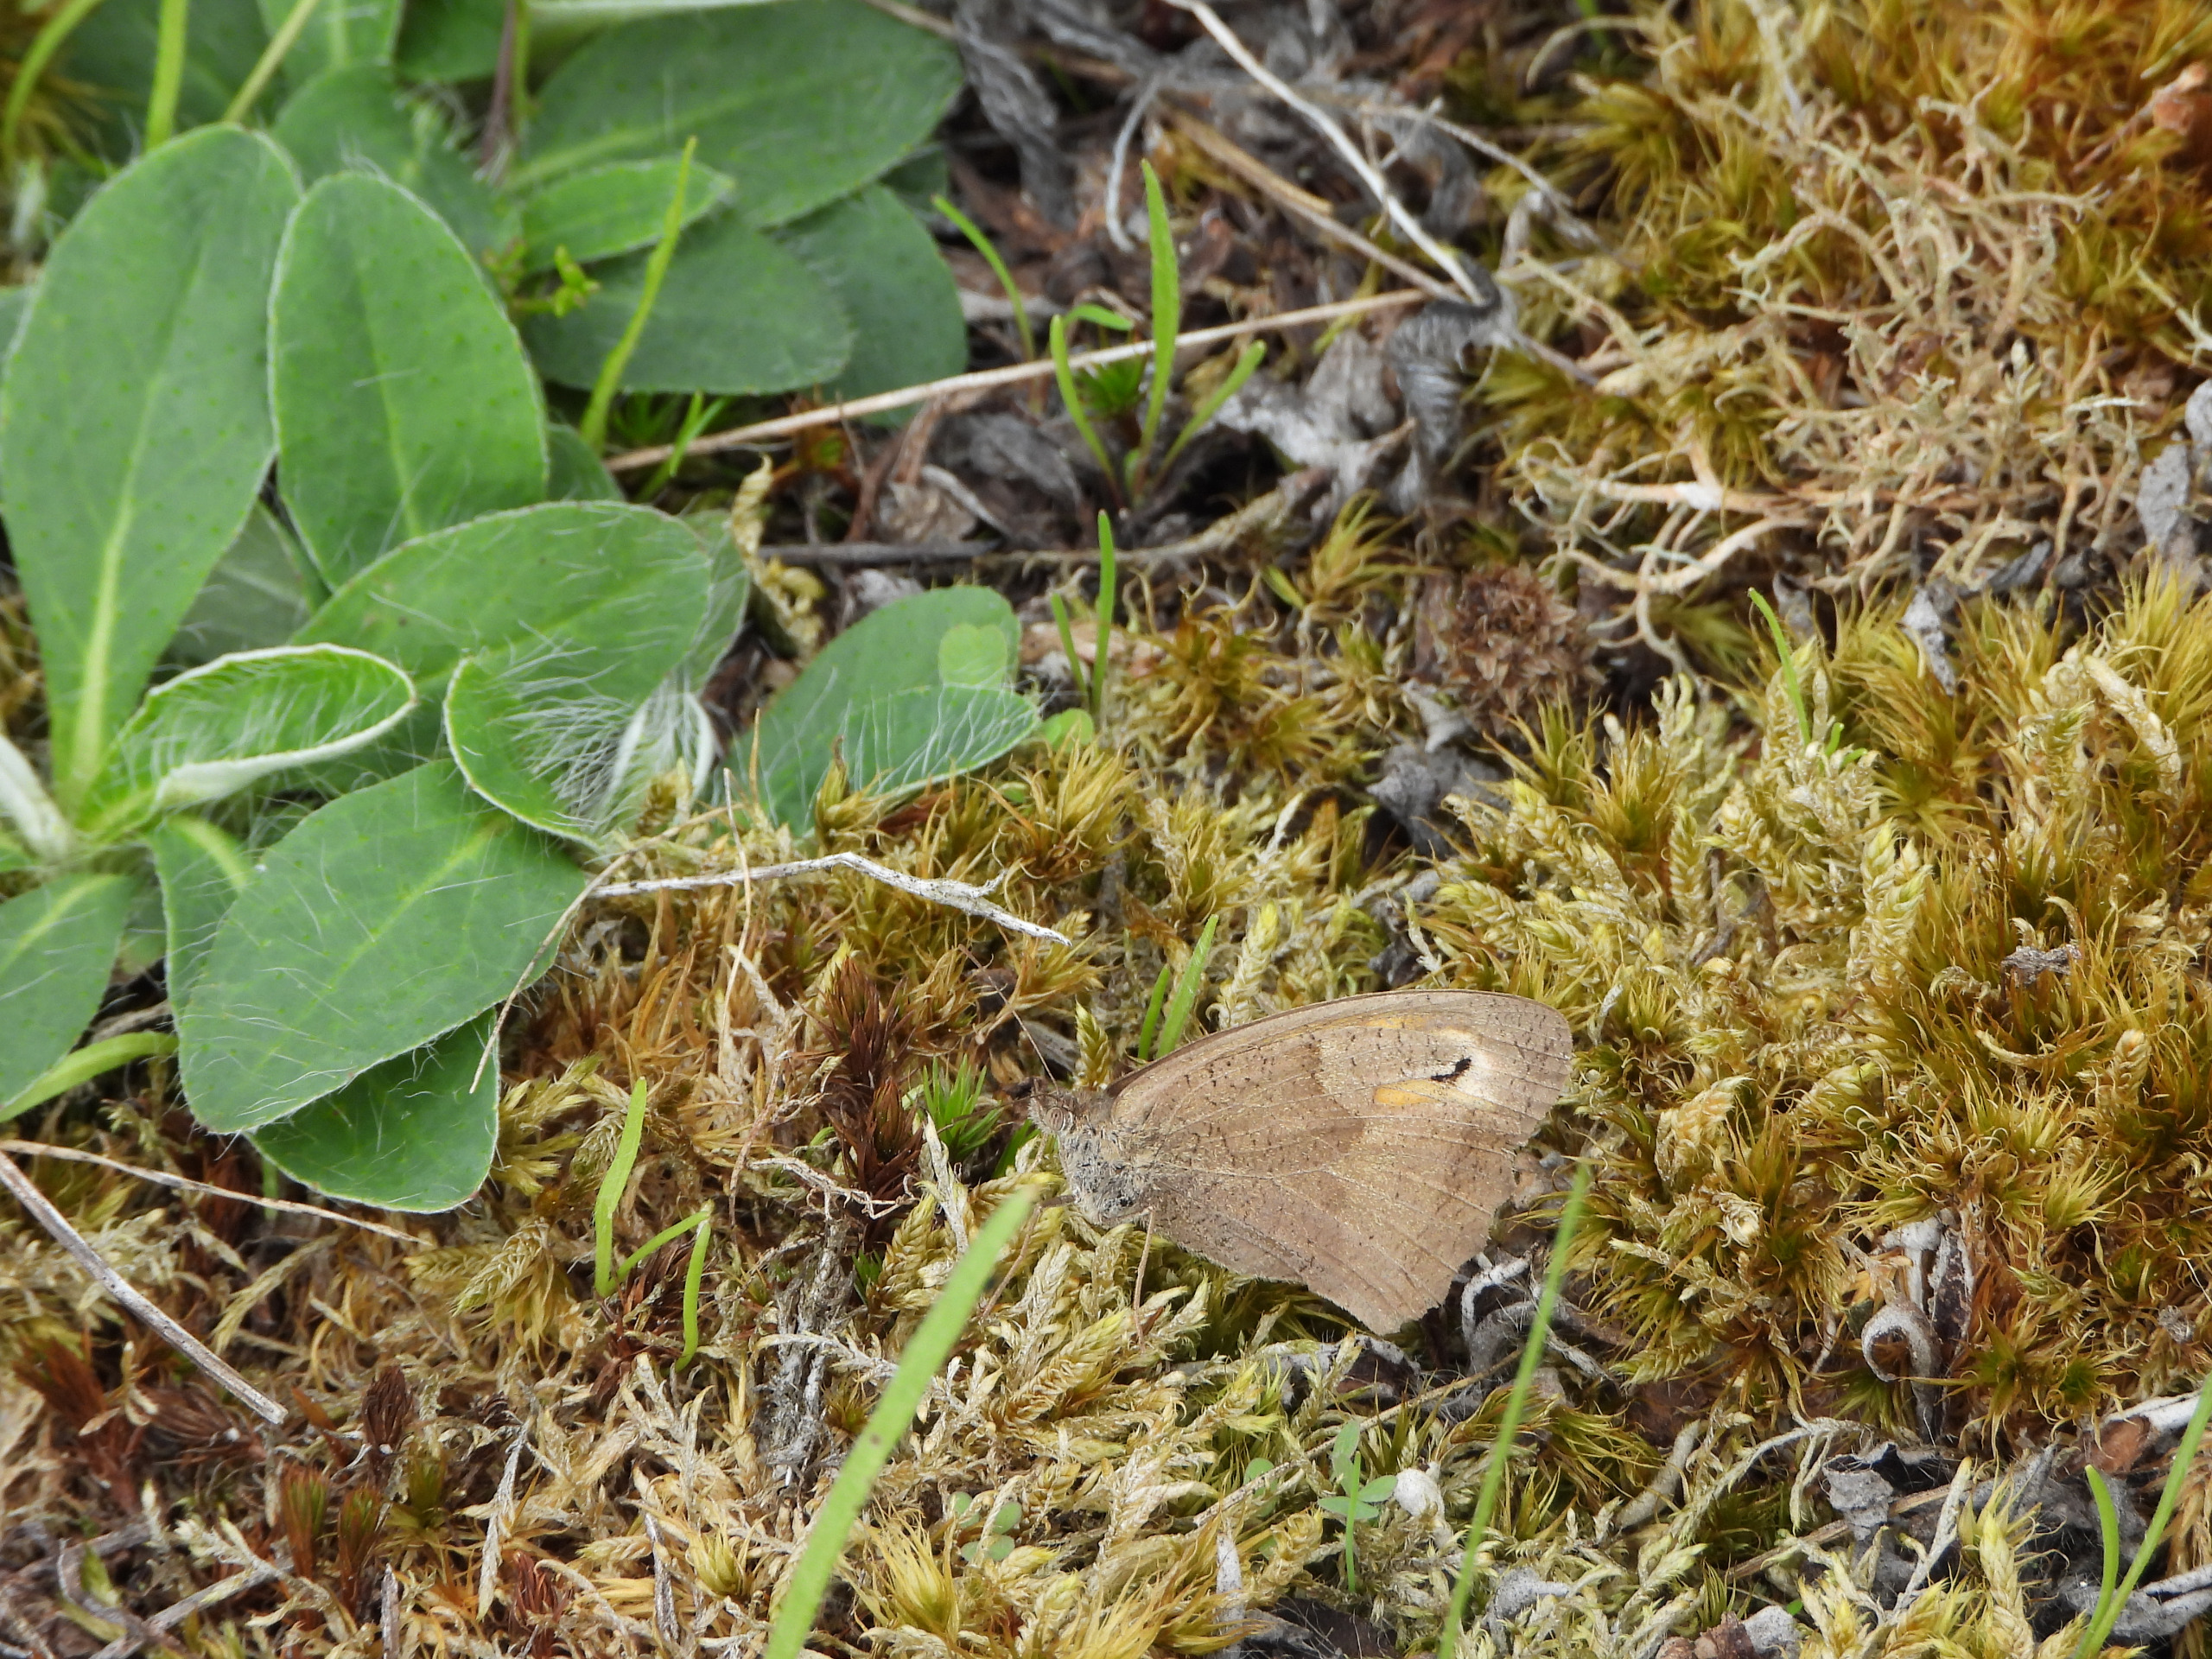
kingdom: Animalia
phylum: Arthropoda
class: Insecta
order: Lepidoptera
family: Nymphalidae
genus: Maniola
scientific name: Maniola jurtina
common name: Græsrandøje
